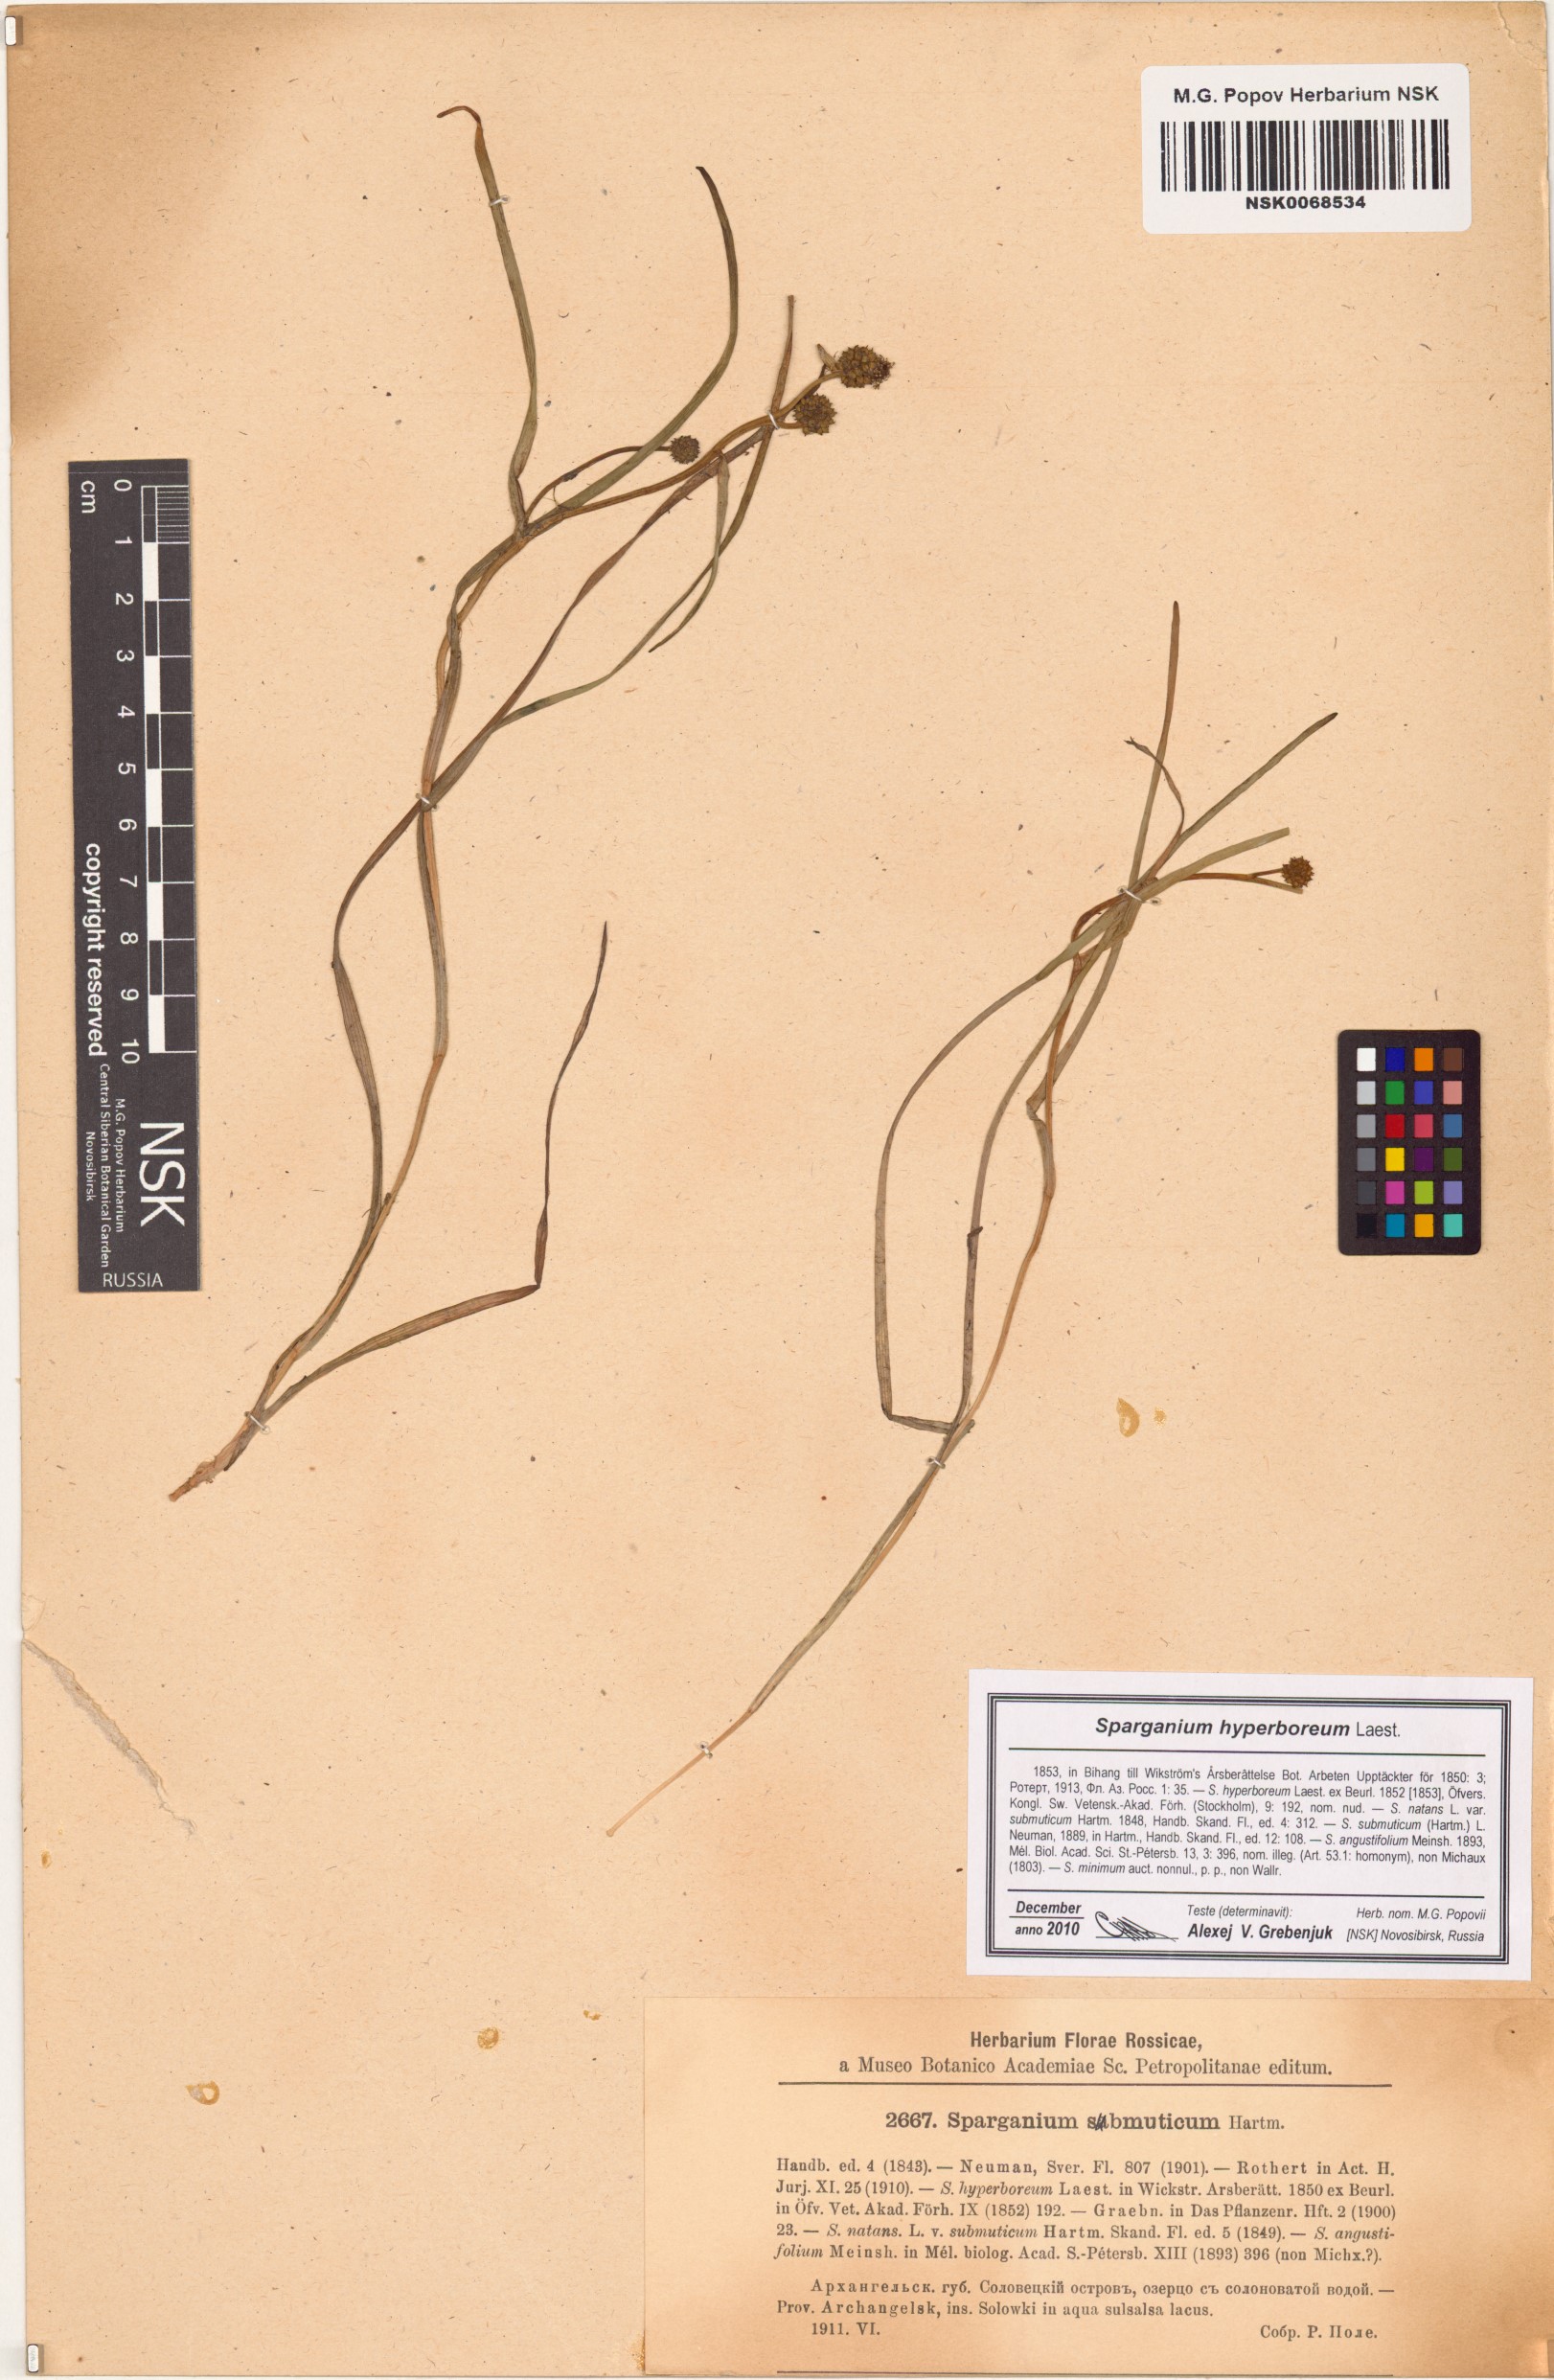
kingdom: Plantae
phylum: Tracheophyta
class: Liliopsida
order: Poales
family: Typhaceae
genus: Sparganium
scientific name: Sparganium hyperboreum
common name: Arctic burreed
